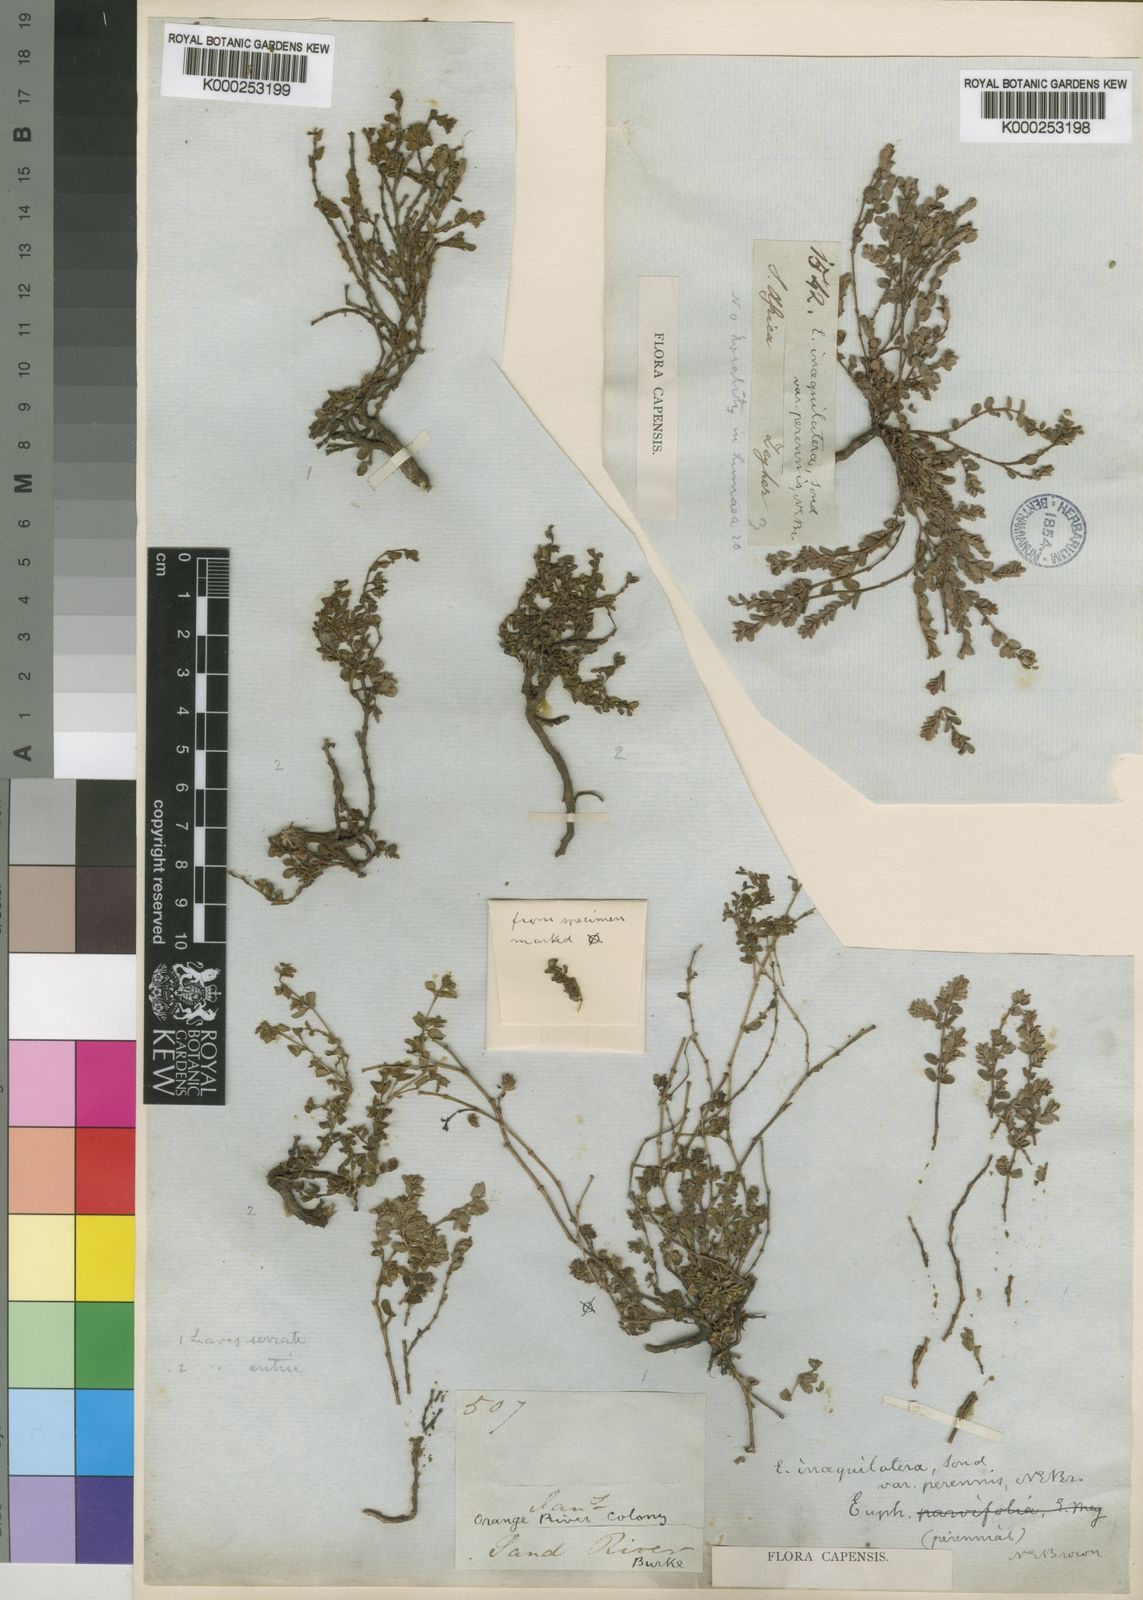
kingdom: Plantae
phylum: Tracheophyta
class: Magnoliopsida
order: Malpighiales
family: Euphorbiaceae
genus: Euphorbia
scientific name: Euphorbia inaequilatera
